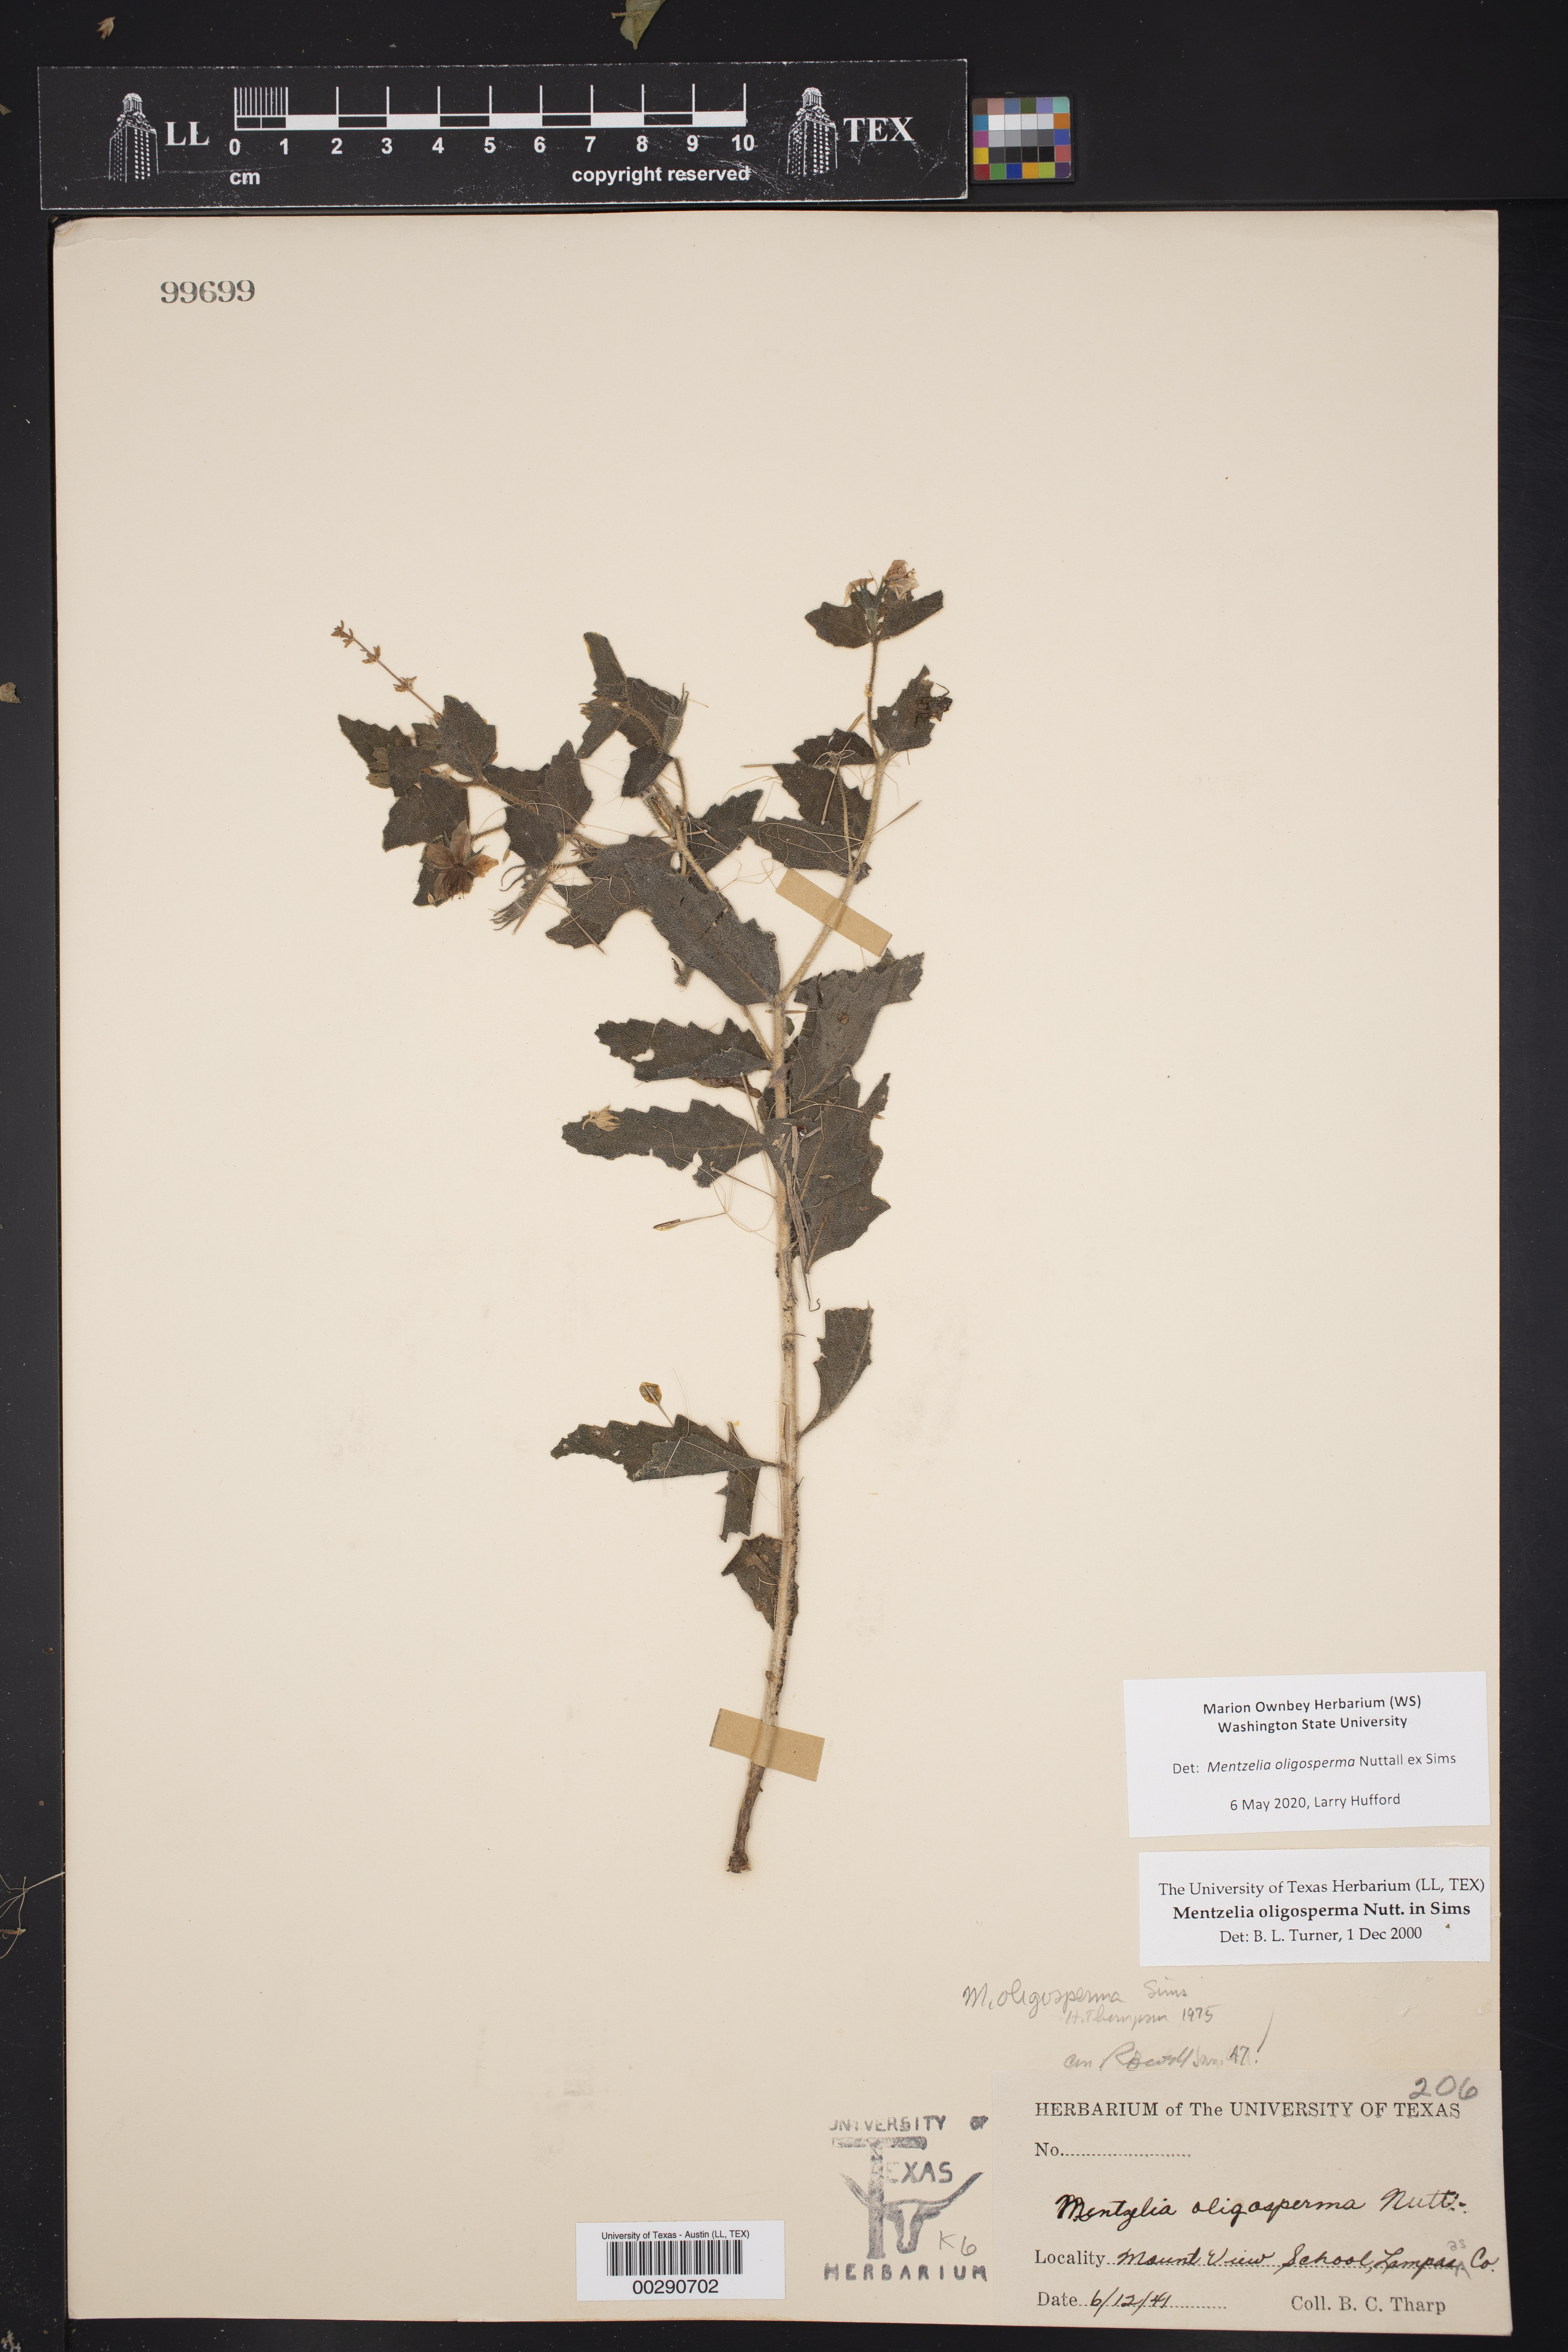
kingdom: Plantae
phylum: Tracheophyta
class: Magnoliopsida
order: Cornales
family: Loasaceae
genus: Mentzelia
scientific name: Mentzelia oligosperma
